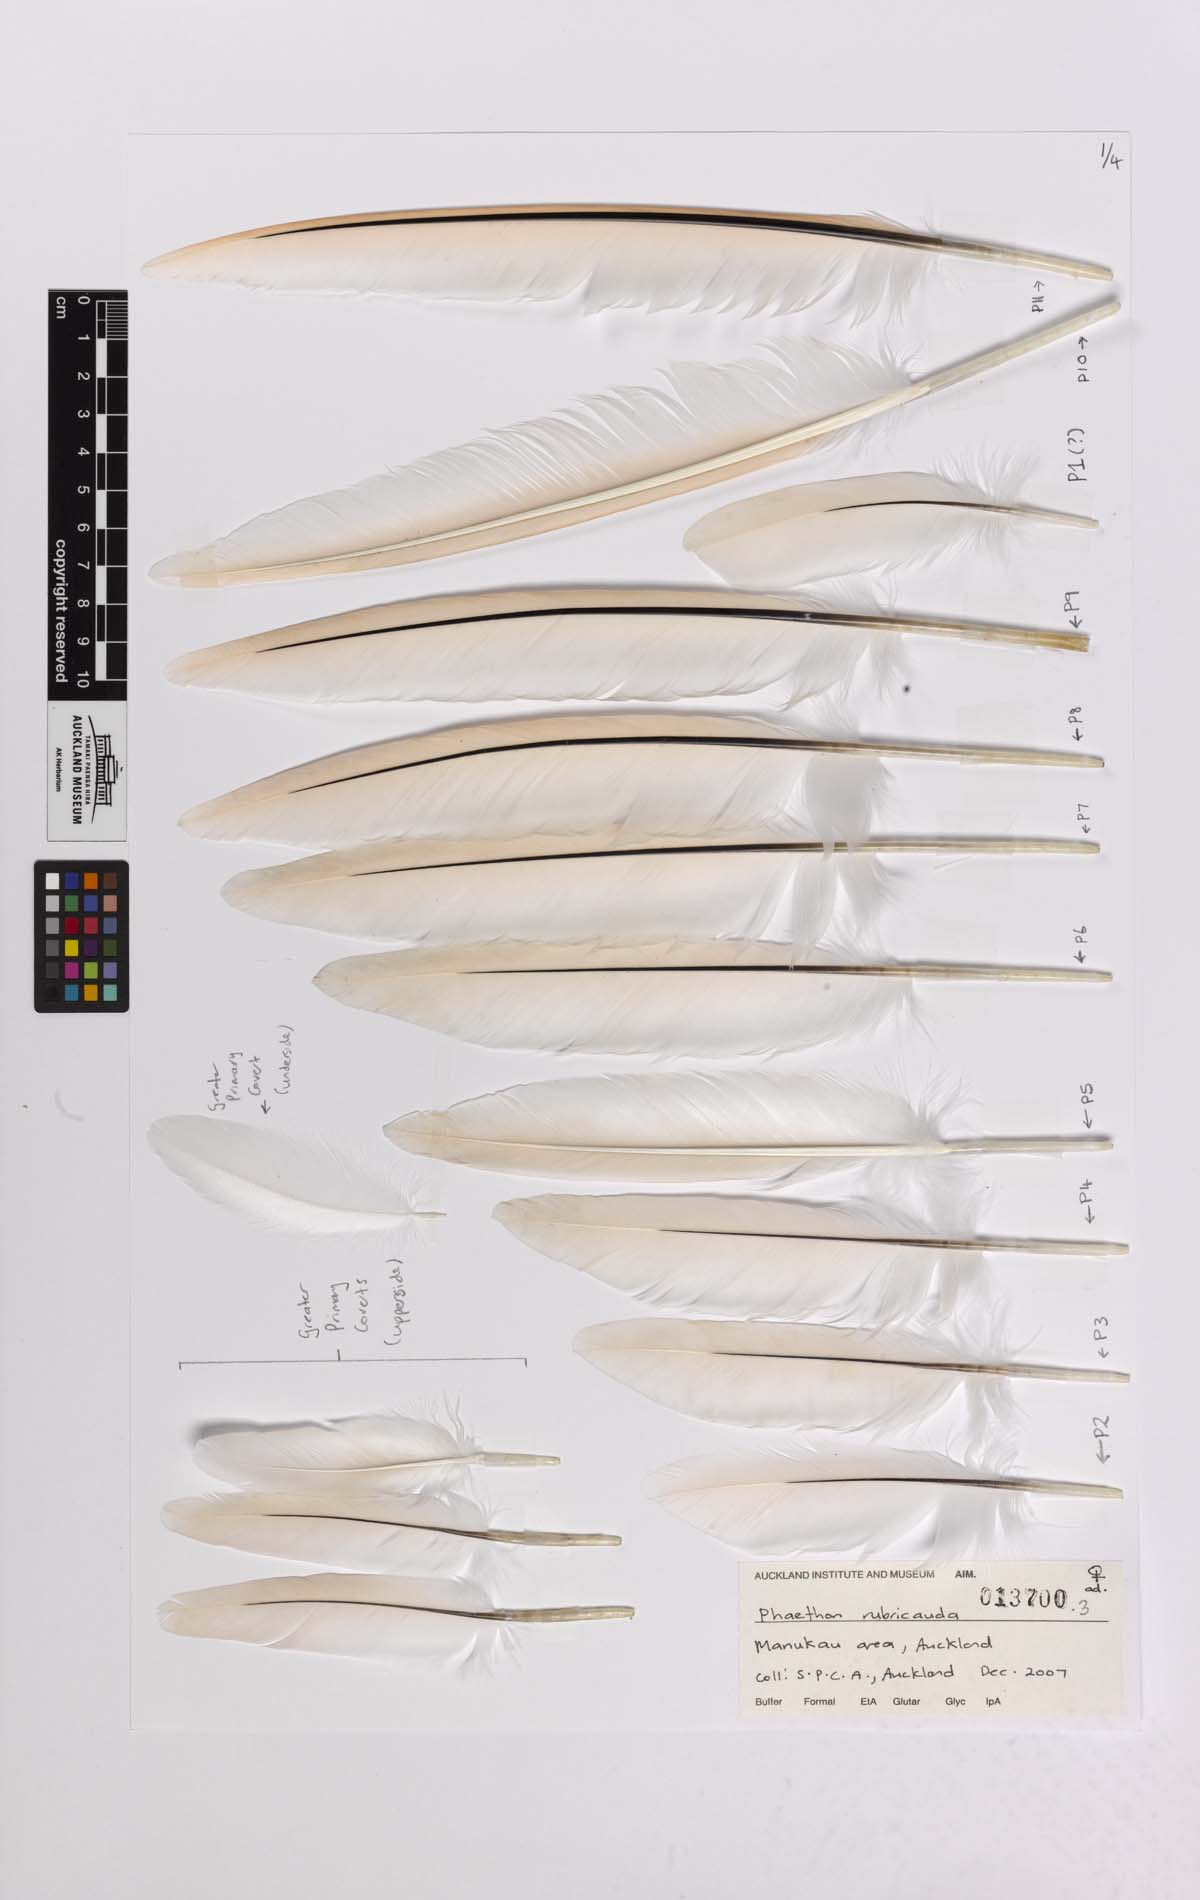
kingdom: Animalia
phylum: Chordata
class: Aves
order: Phaethontiformes
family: Phaethontidae
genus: Phaethon
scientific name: Phaethon rubricauda
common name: Red-tailed tropicbird
